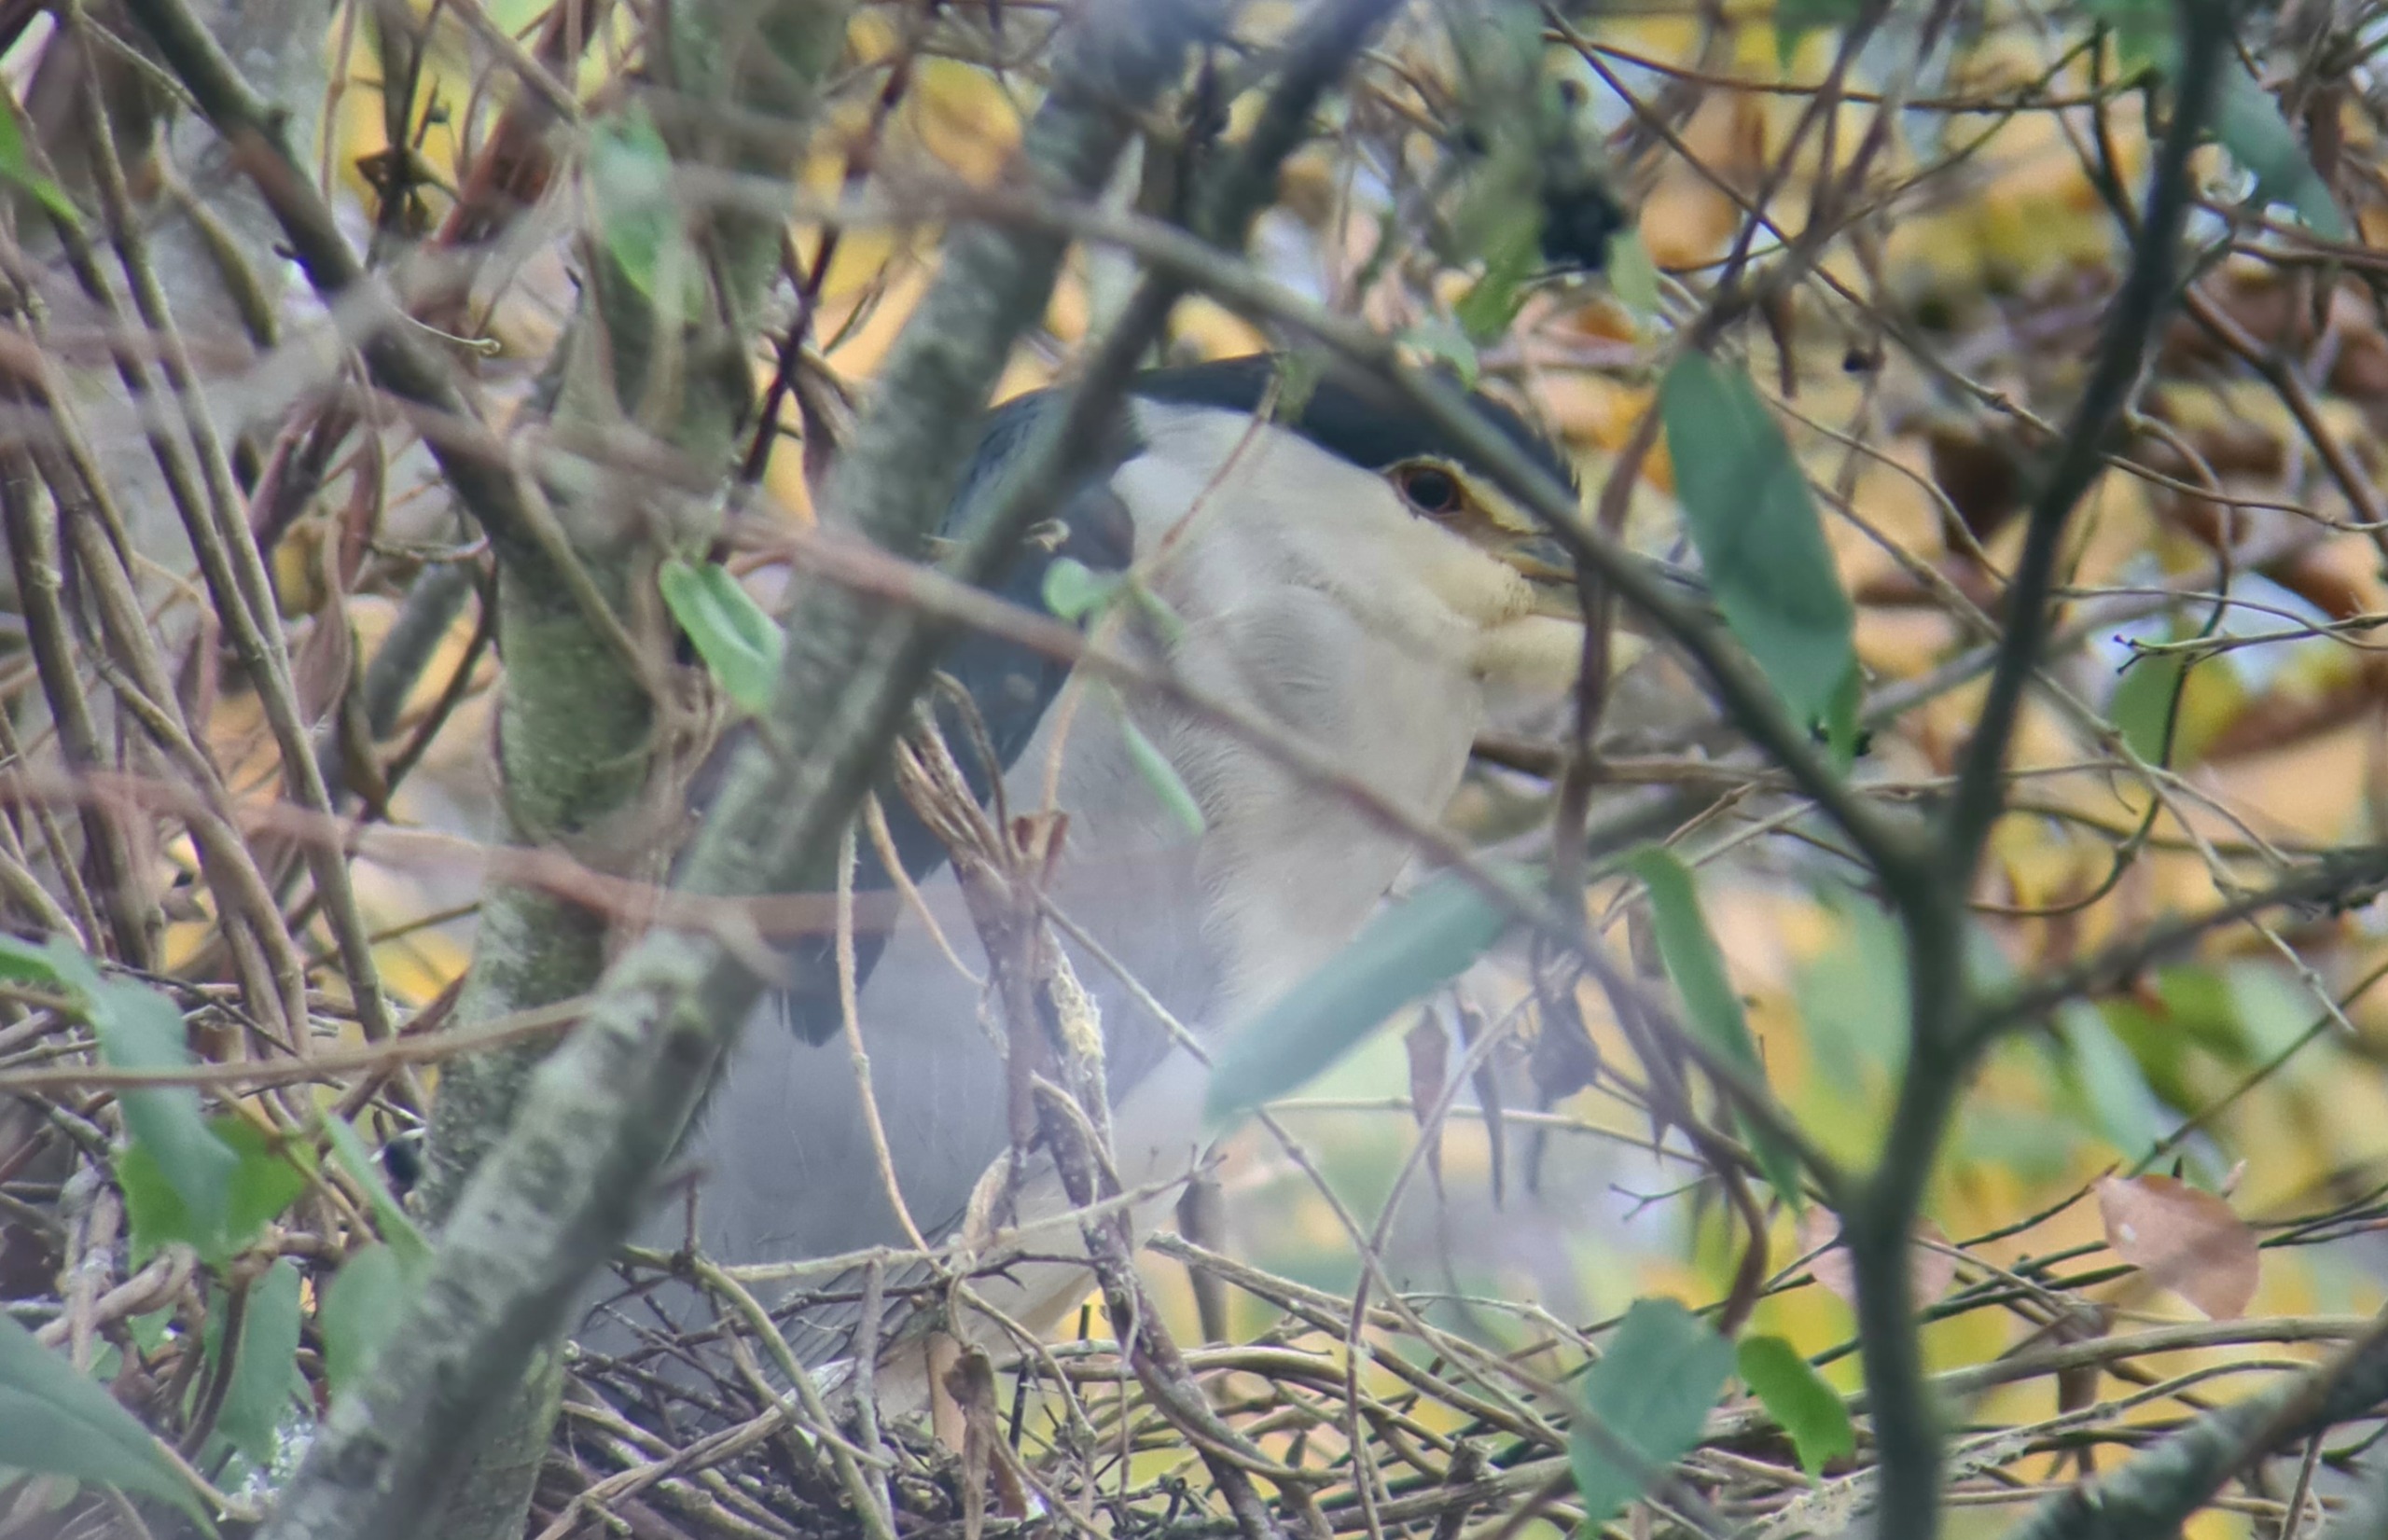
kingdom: Animalia
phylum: Chordata
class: Aves
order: Pelecaniformes
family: Ardeidae
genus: Nycticorax
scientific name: Nycticorax nycticorax
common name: Nathejre
